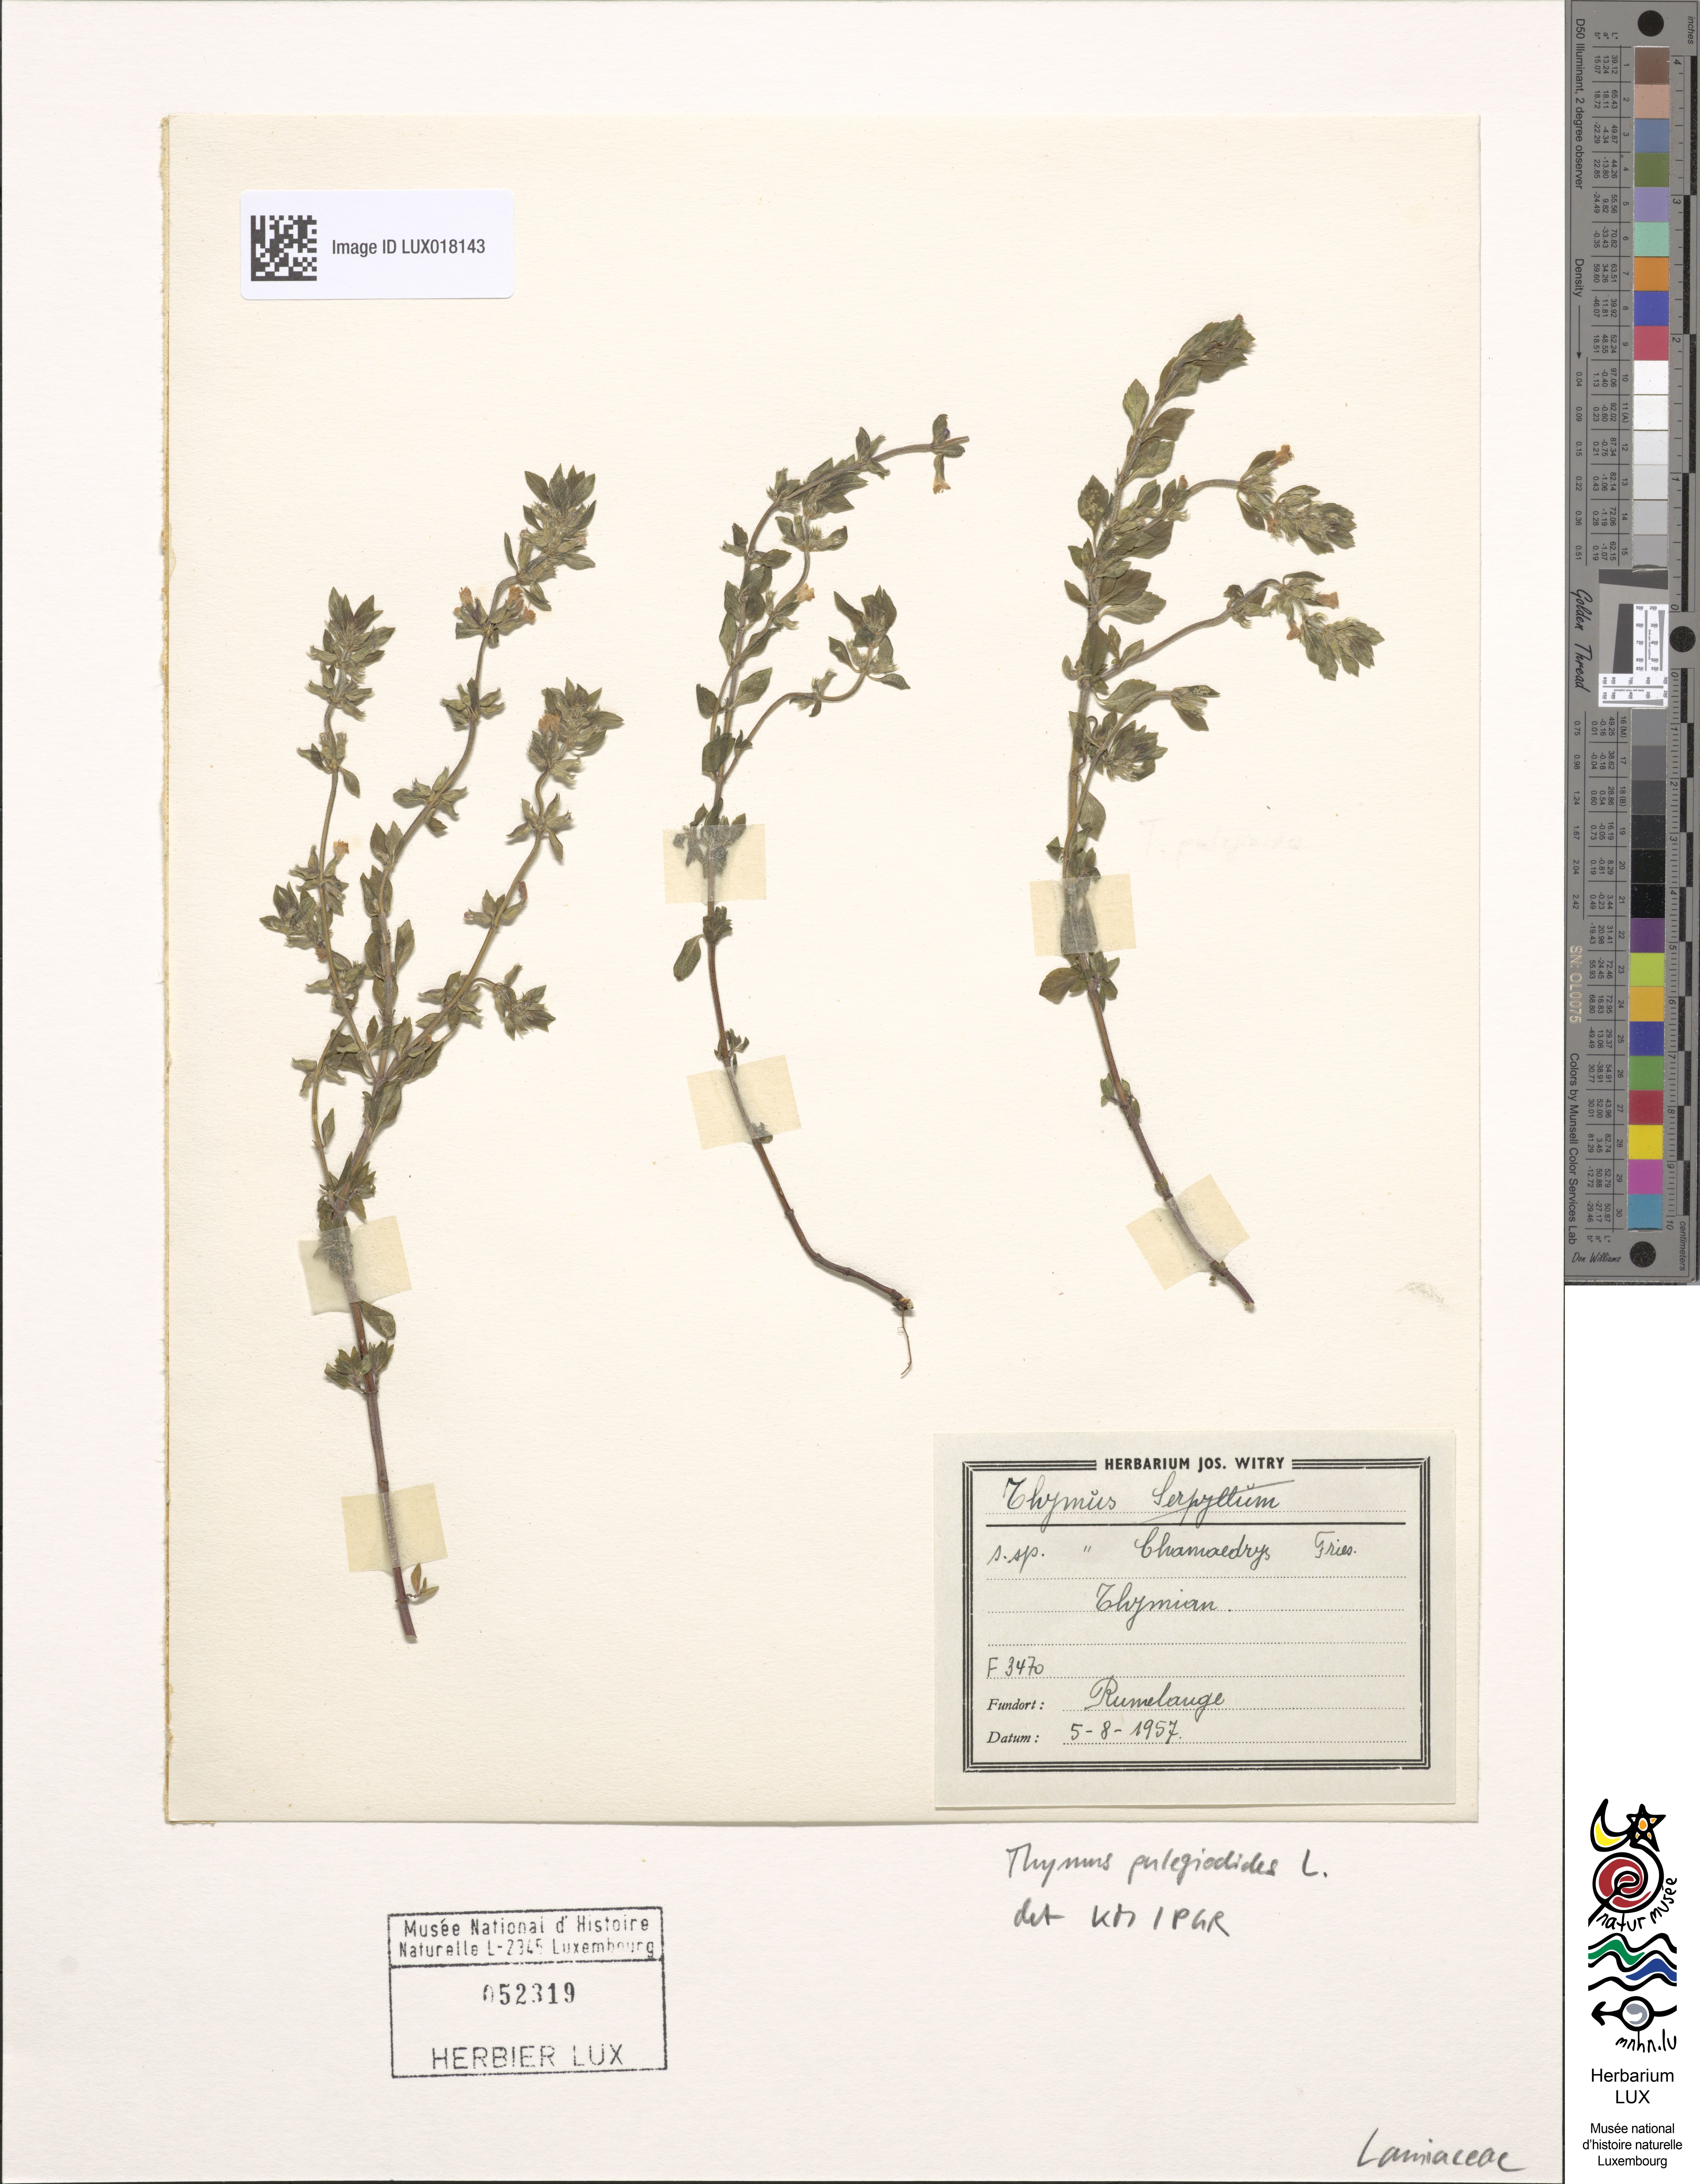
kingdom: Plantae
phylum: Tracheophyta
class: Magnoliopsida
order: Lamiales
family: Lamiaceae
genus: Thymus
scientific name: Thymus pulegioides
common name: Large thyme
